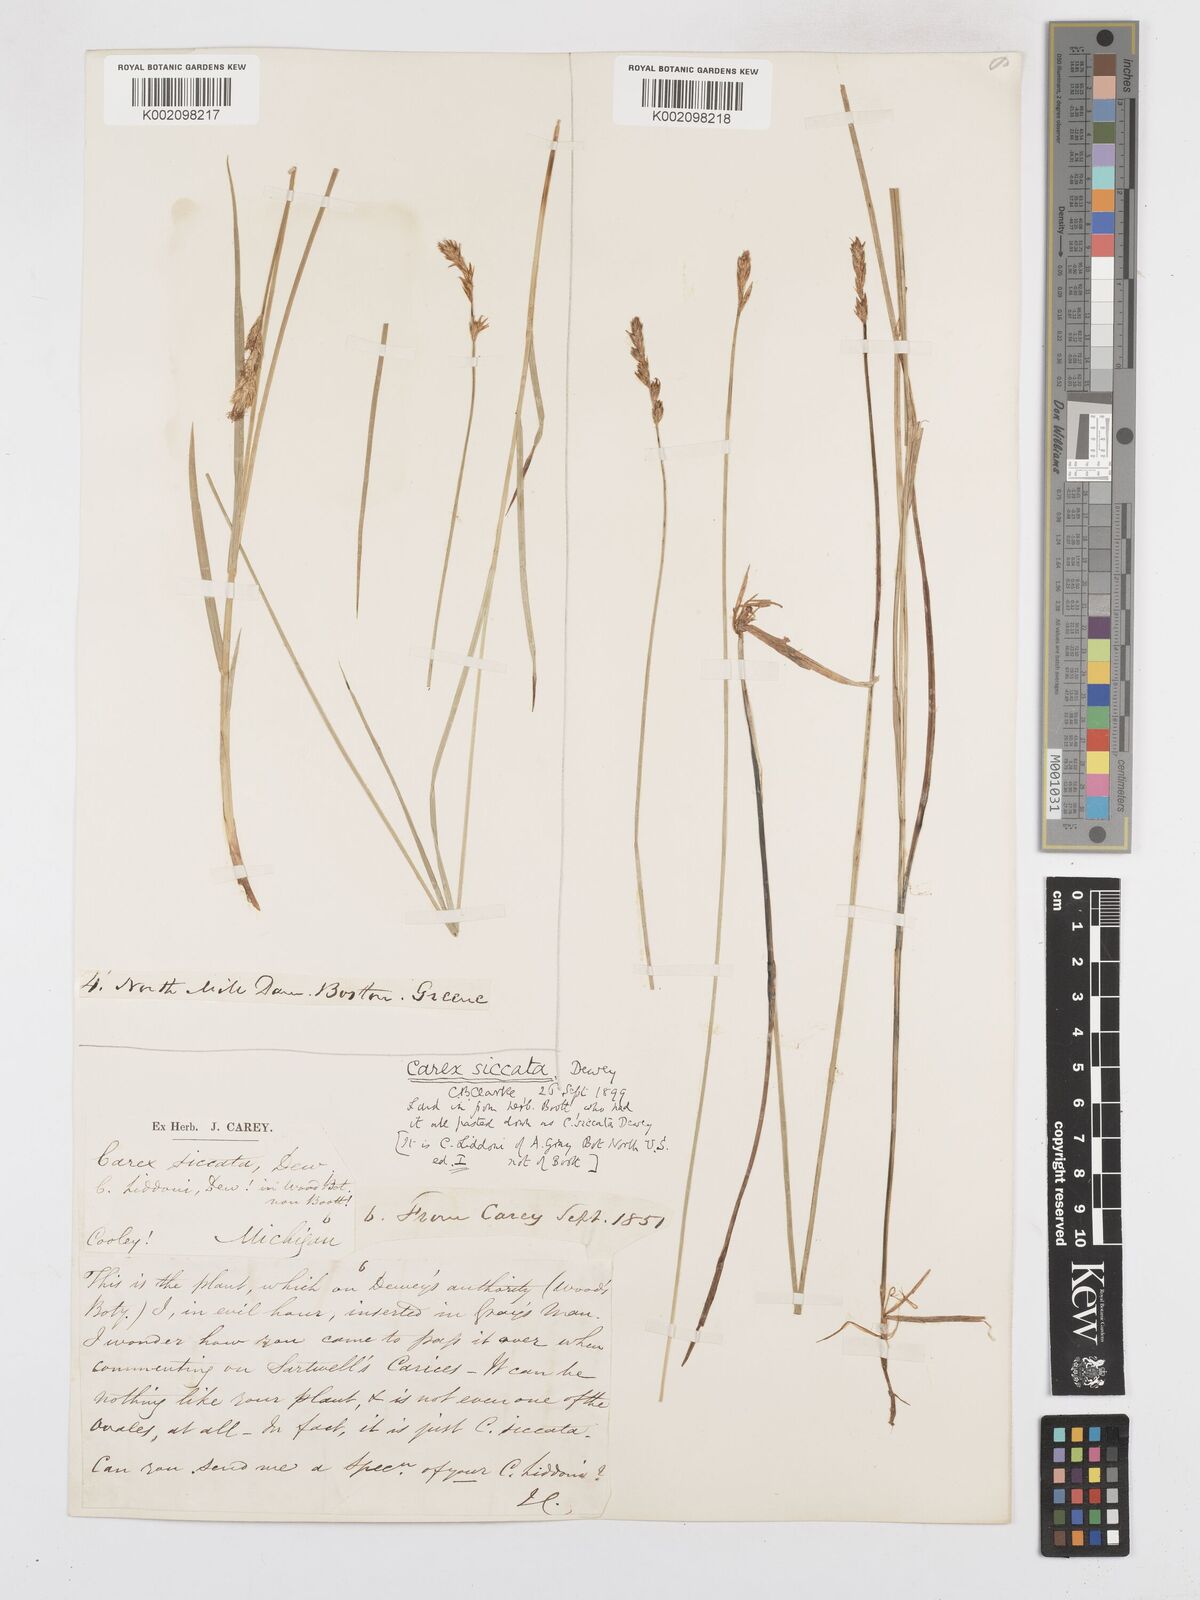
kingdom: Plantae
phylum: Tracheophyta
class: Liliopsida
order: Poales
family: Cyperaceae
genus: Carex
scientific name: Carex foenea
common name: Bronze sedge
